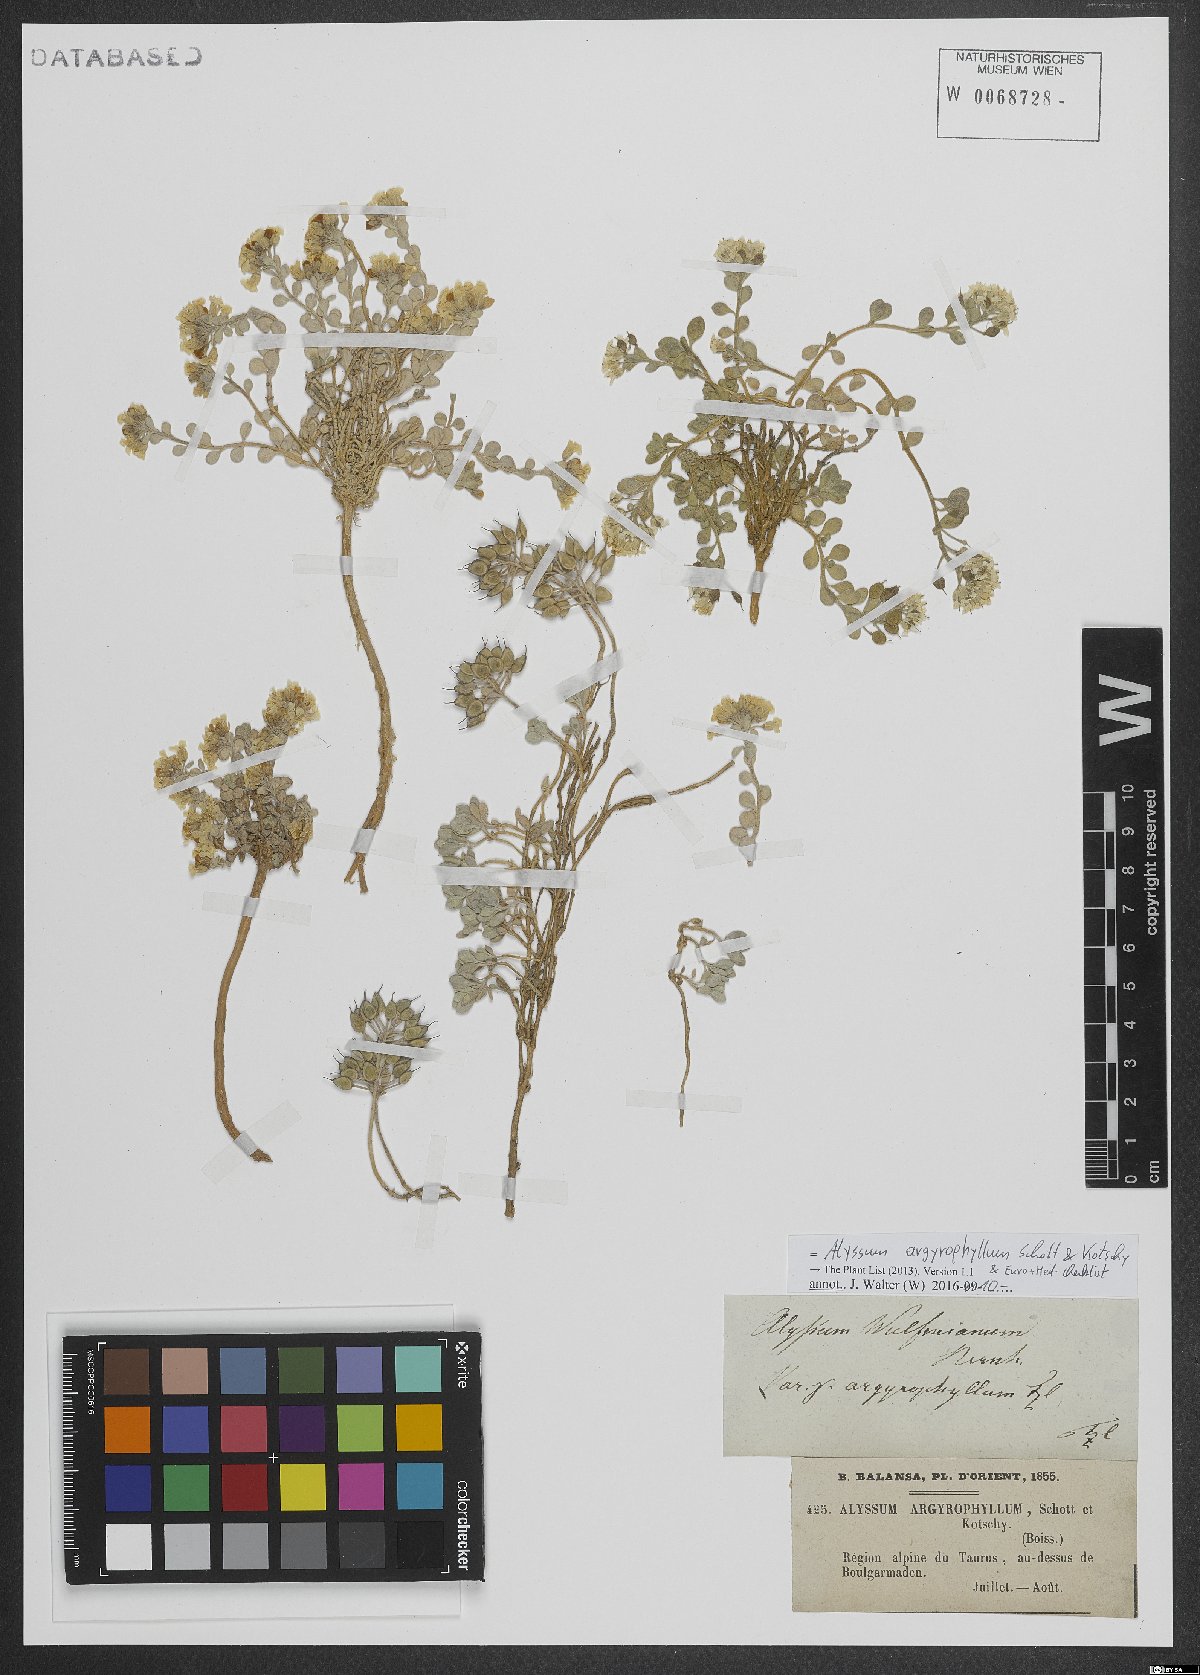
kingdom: Plantae
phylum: Tracheophyta
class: Magnoliopsida
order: Brassicales
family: Brassicaceae
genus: Alyssum
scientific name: Alyssum argyrophyllum
